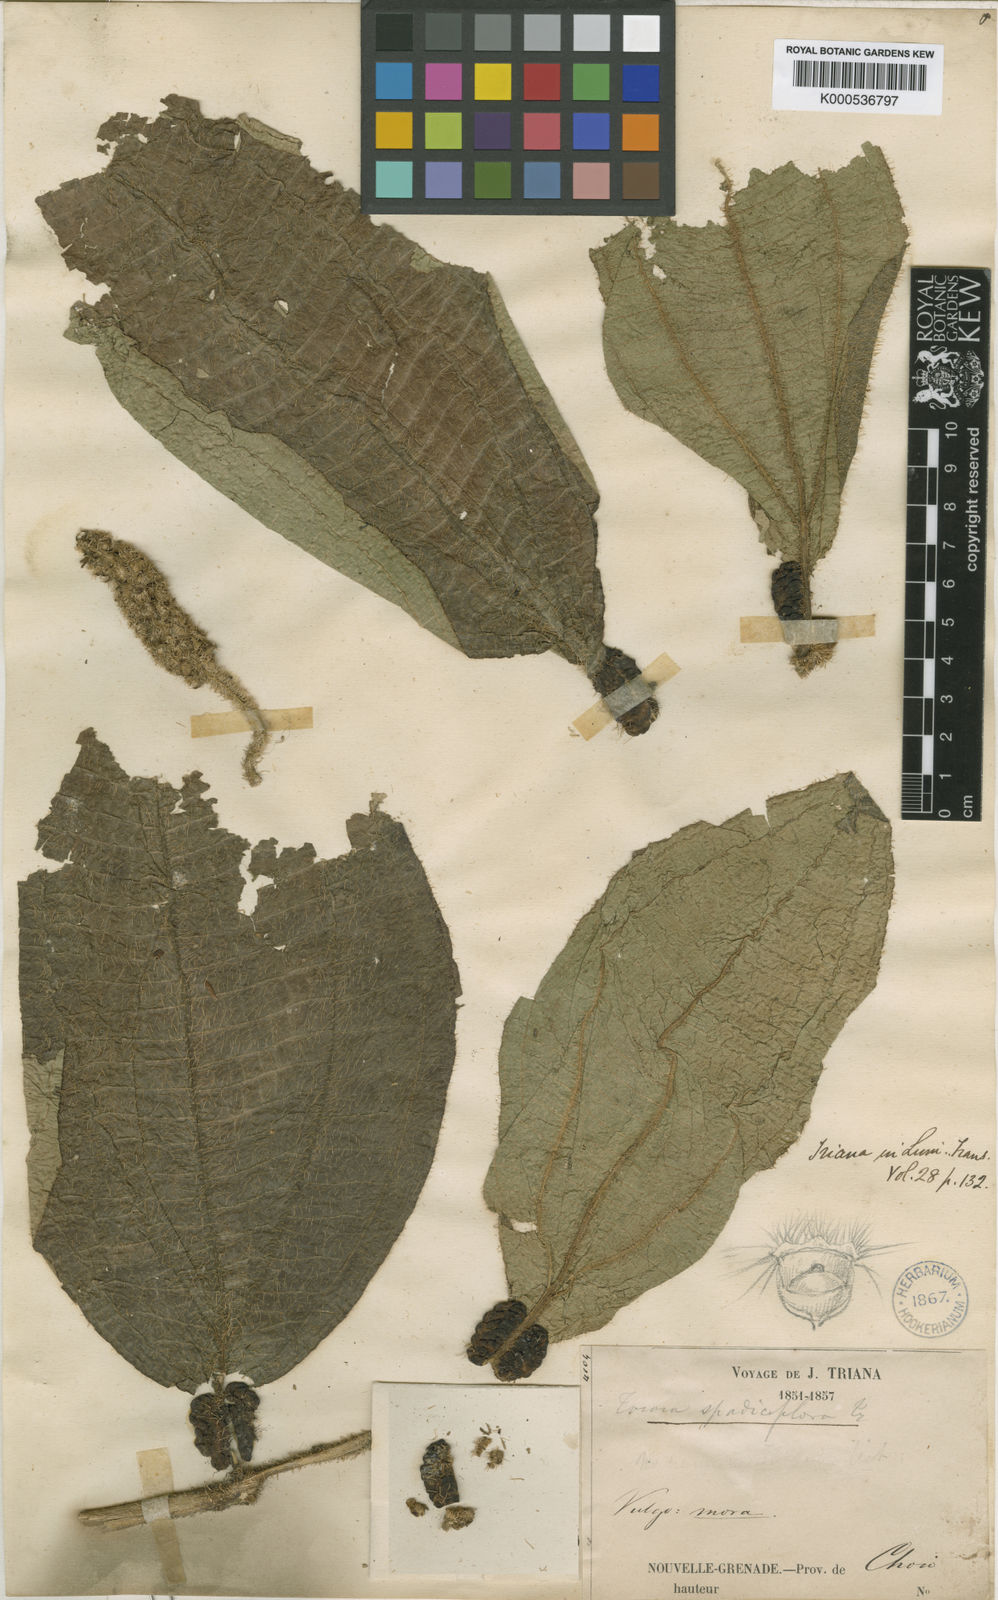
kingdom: Plantae
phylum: Tracheophyta
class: Magnoliopsida
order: Myrtales
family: Melastomataceae
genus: Miconia
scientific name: Miconia spadiciflora
